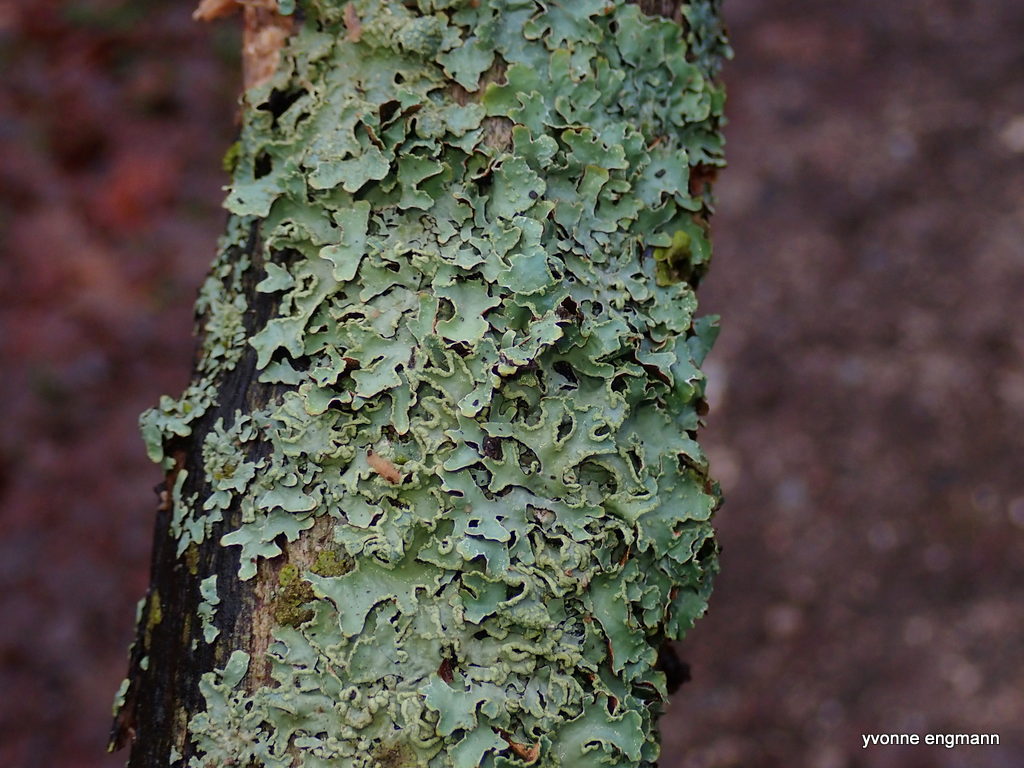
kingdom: Fungi
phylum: Ascomycota
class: Lecanoromycetes
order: Lecanorales
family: Parmeliaceae
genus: Parmelia
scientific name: Parmelia sulcata
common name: rynket skållav
